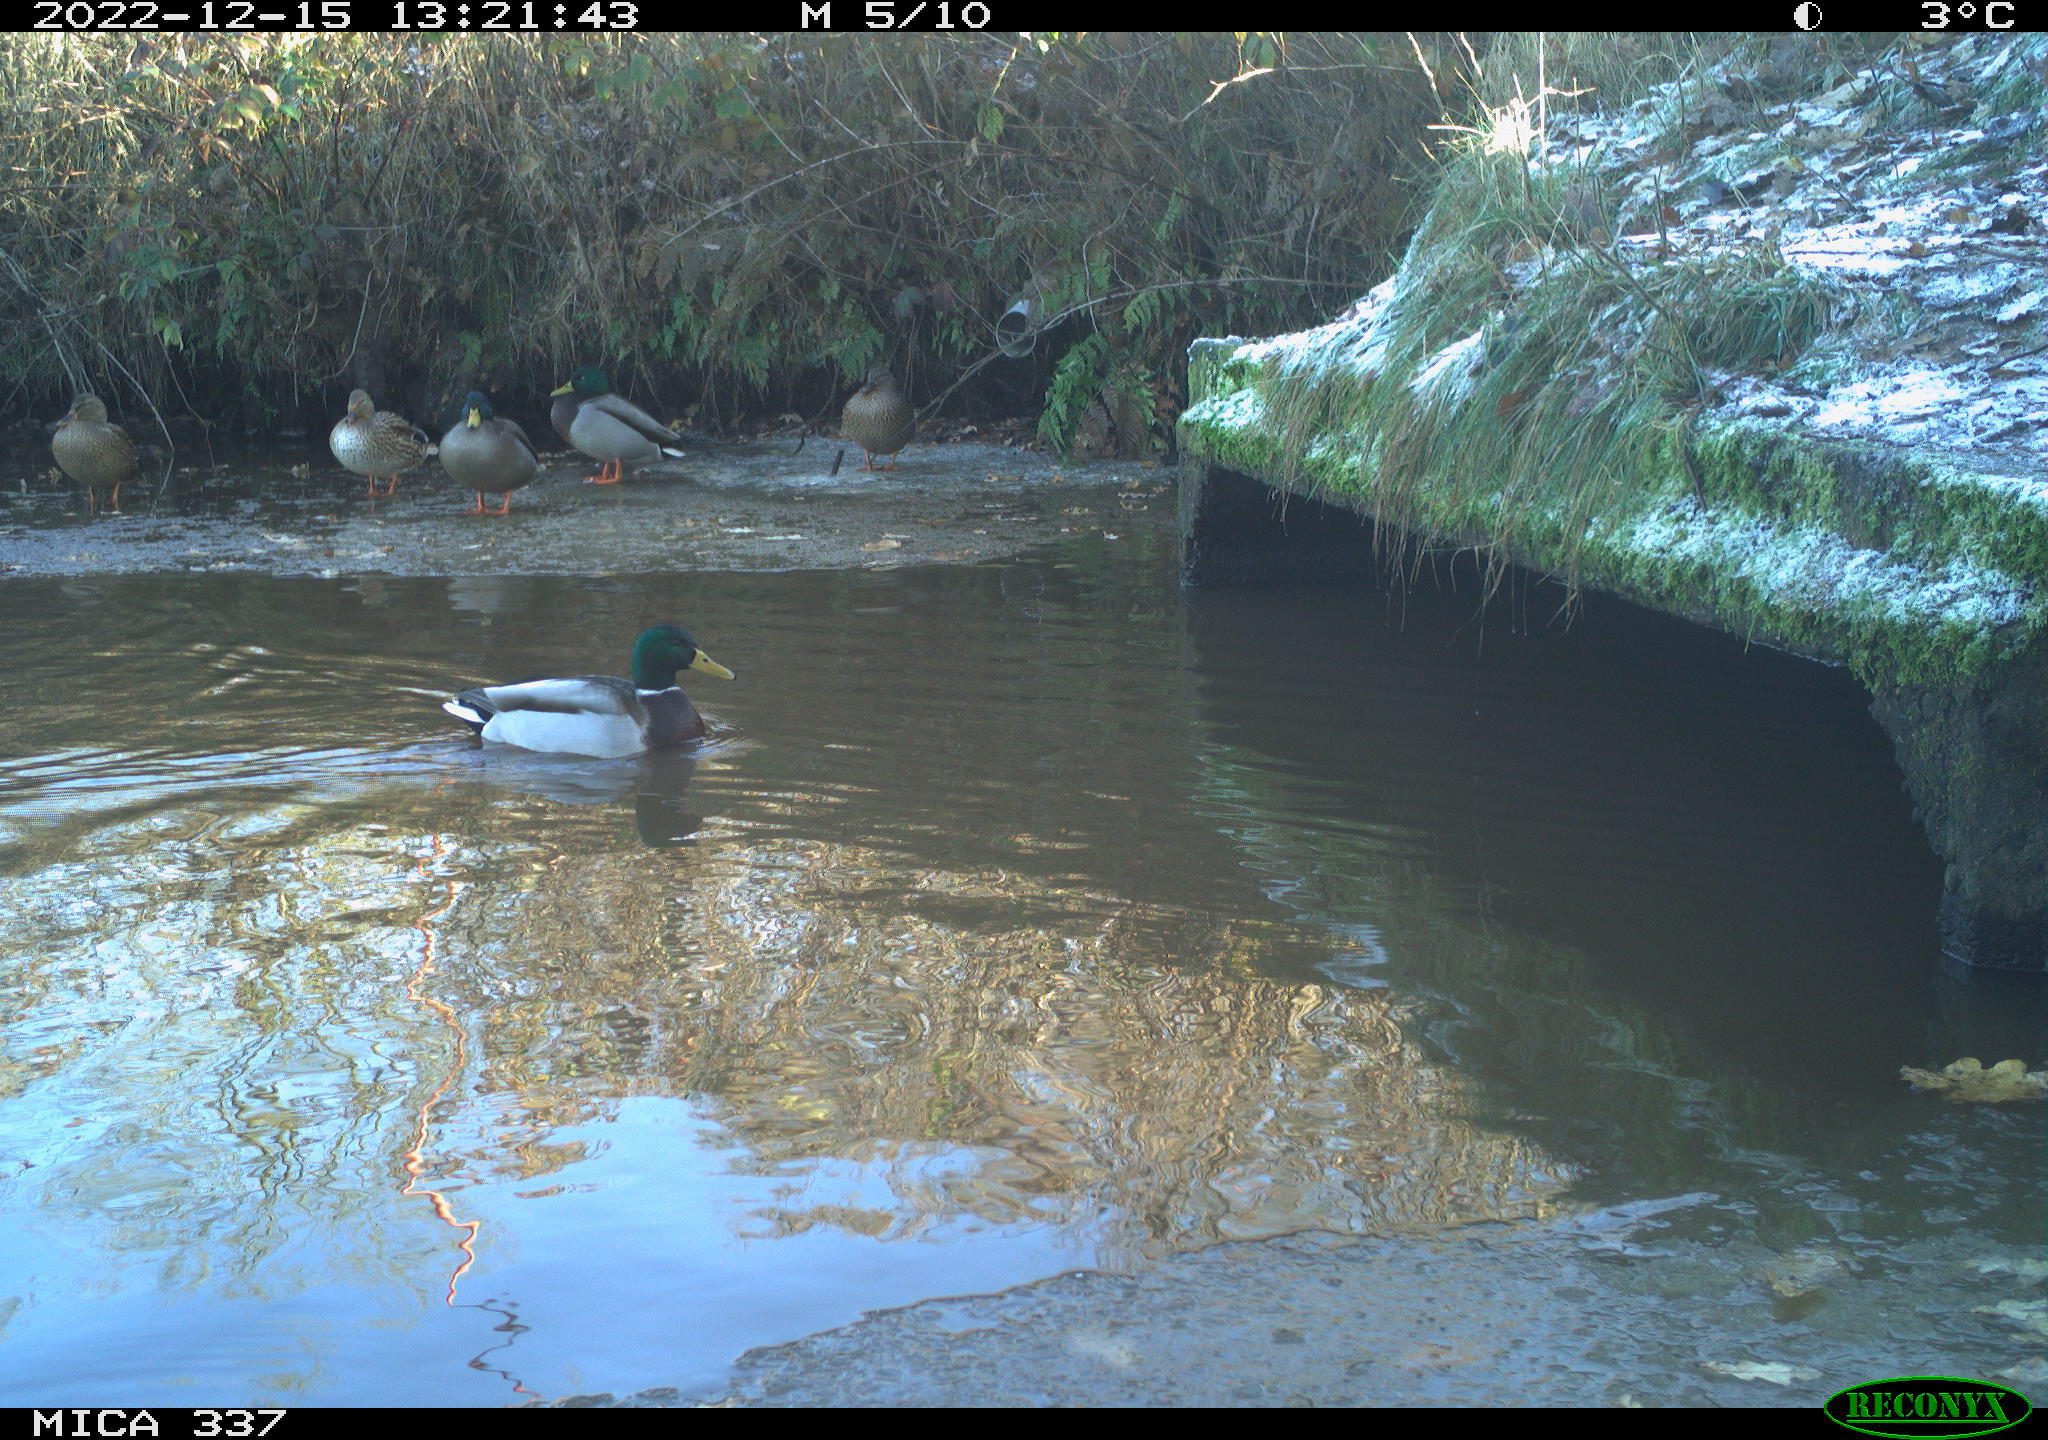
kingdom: Animalia
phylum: Chordata
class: Aves
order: Anseriformes
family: Anatidae
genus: Anas
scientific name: Anas
